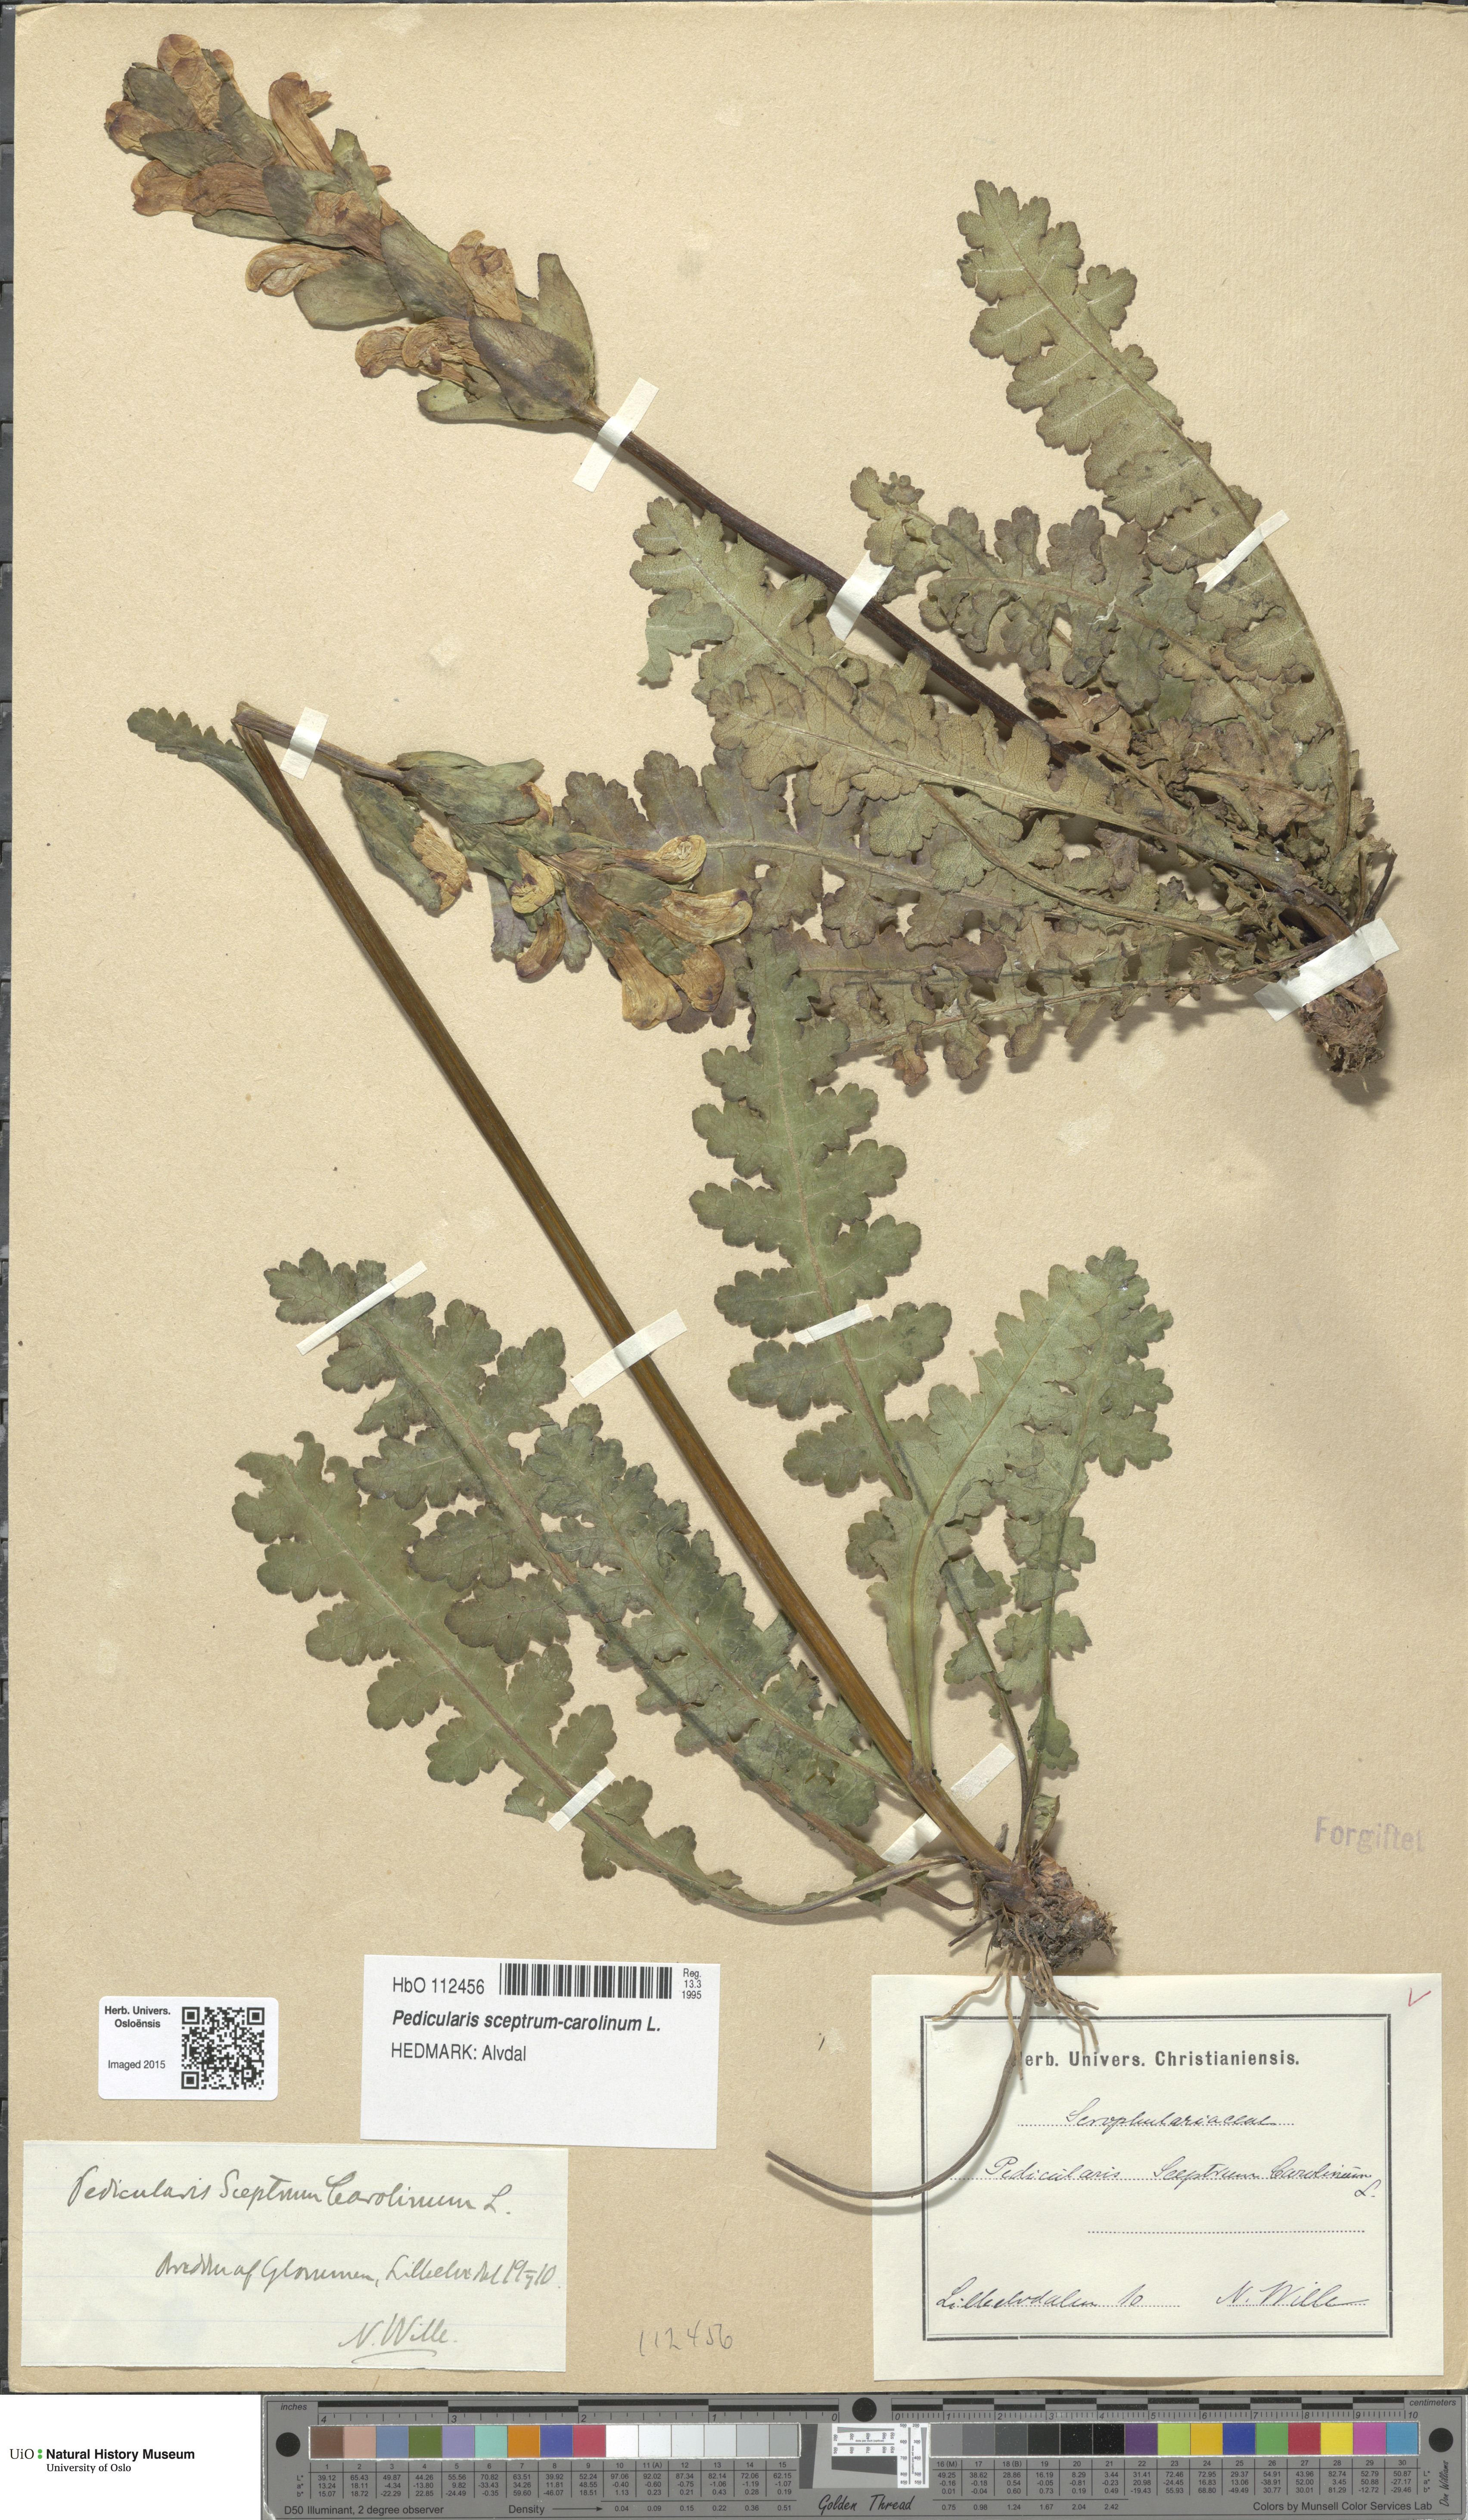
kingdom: Plantae
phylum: Tracheophyta
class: Magnoliopsida
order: Lamiales
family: Orobanchaceae
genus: Pedicularis
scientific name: Pedicularis sceptrum-carolinum
